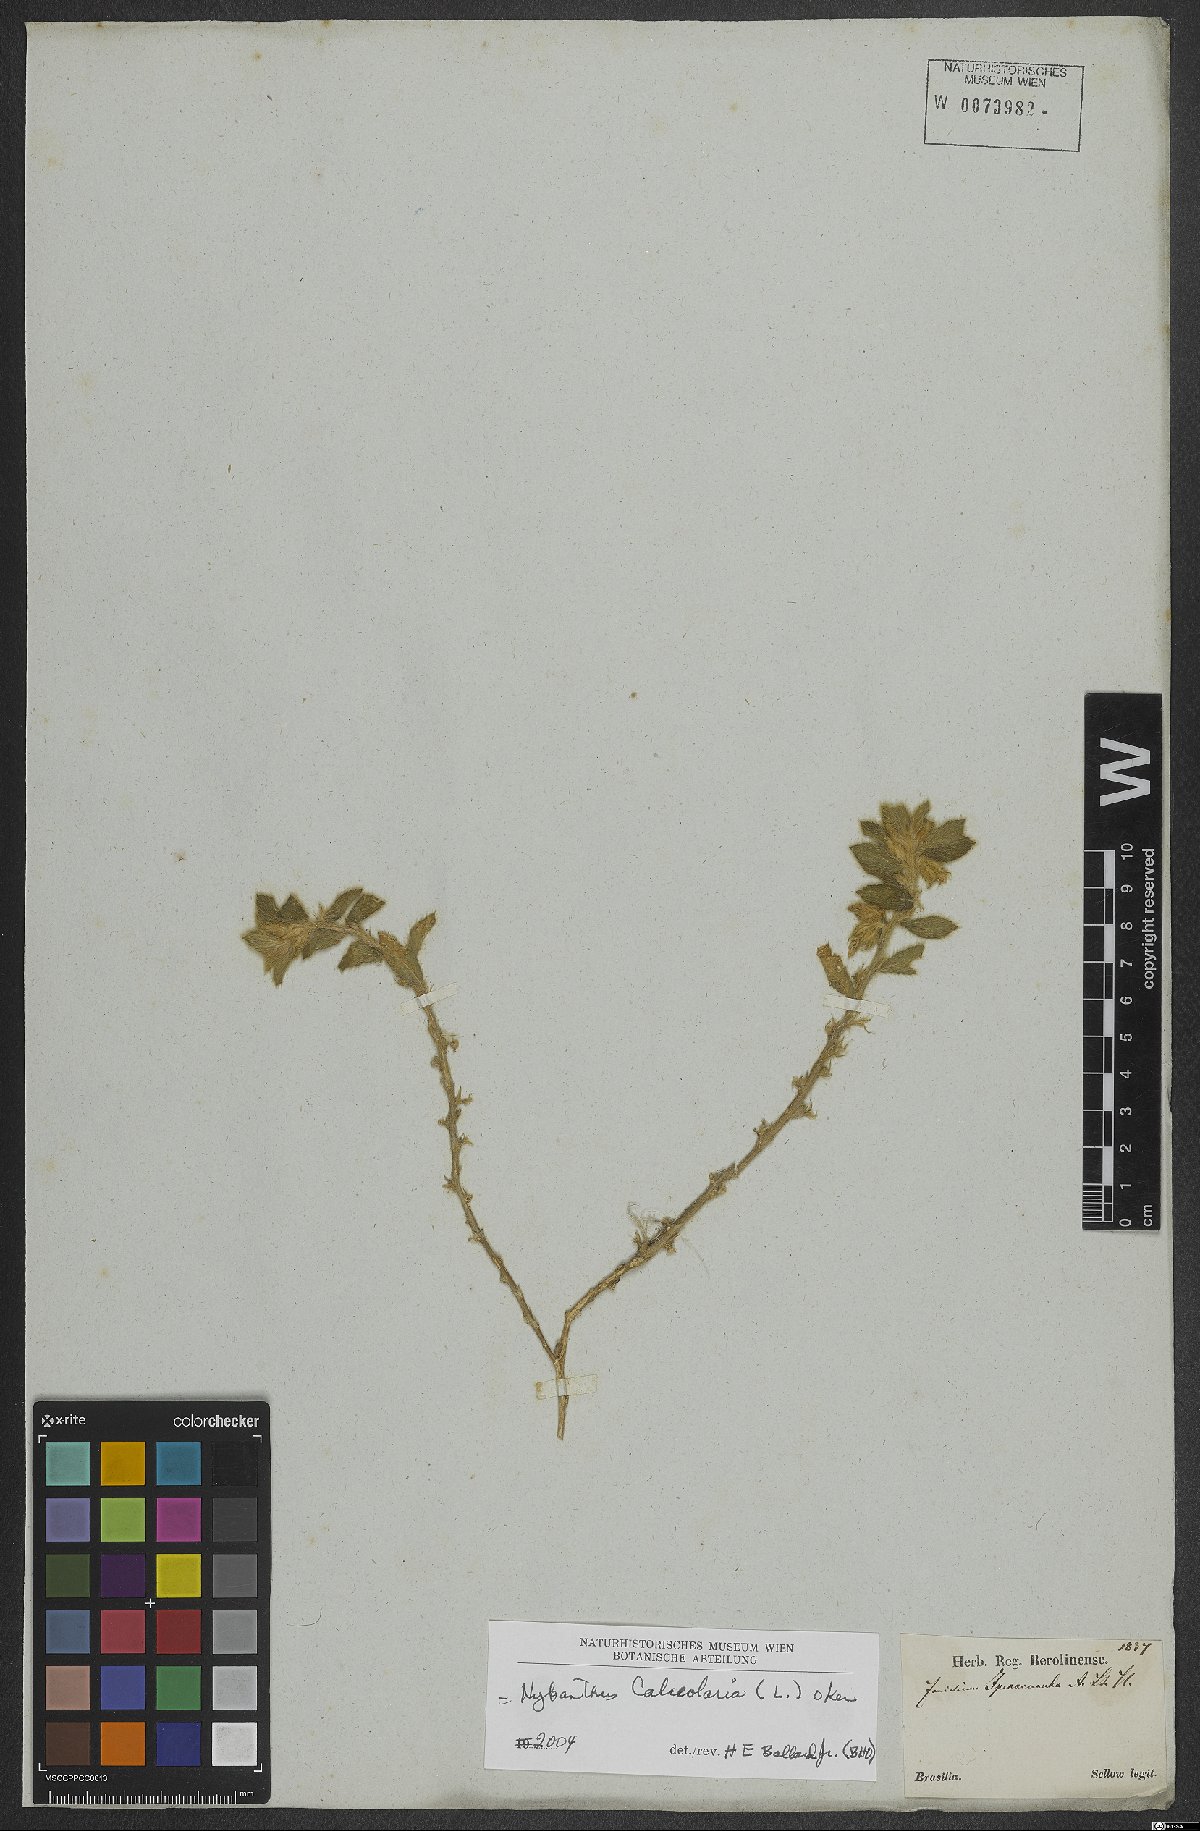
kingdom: Plantae
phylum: Tracheophyta
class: Magnoliopsida
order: Malpighiales
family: Violaceae
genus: Pombalia
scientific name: Pombalia calceolaria
